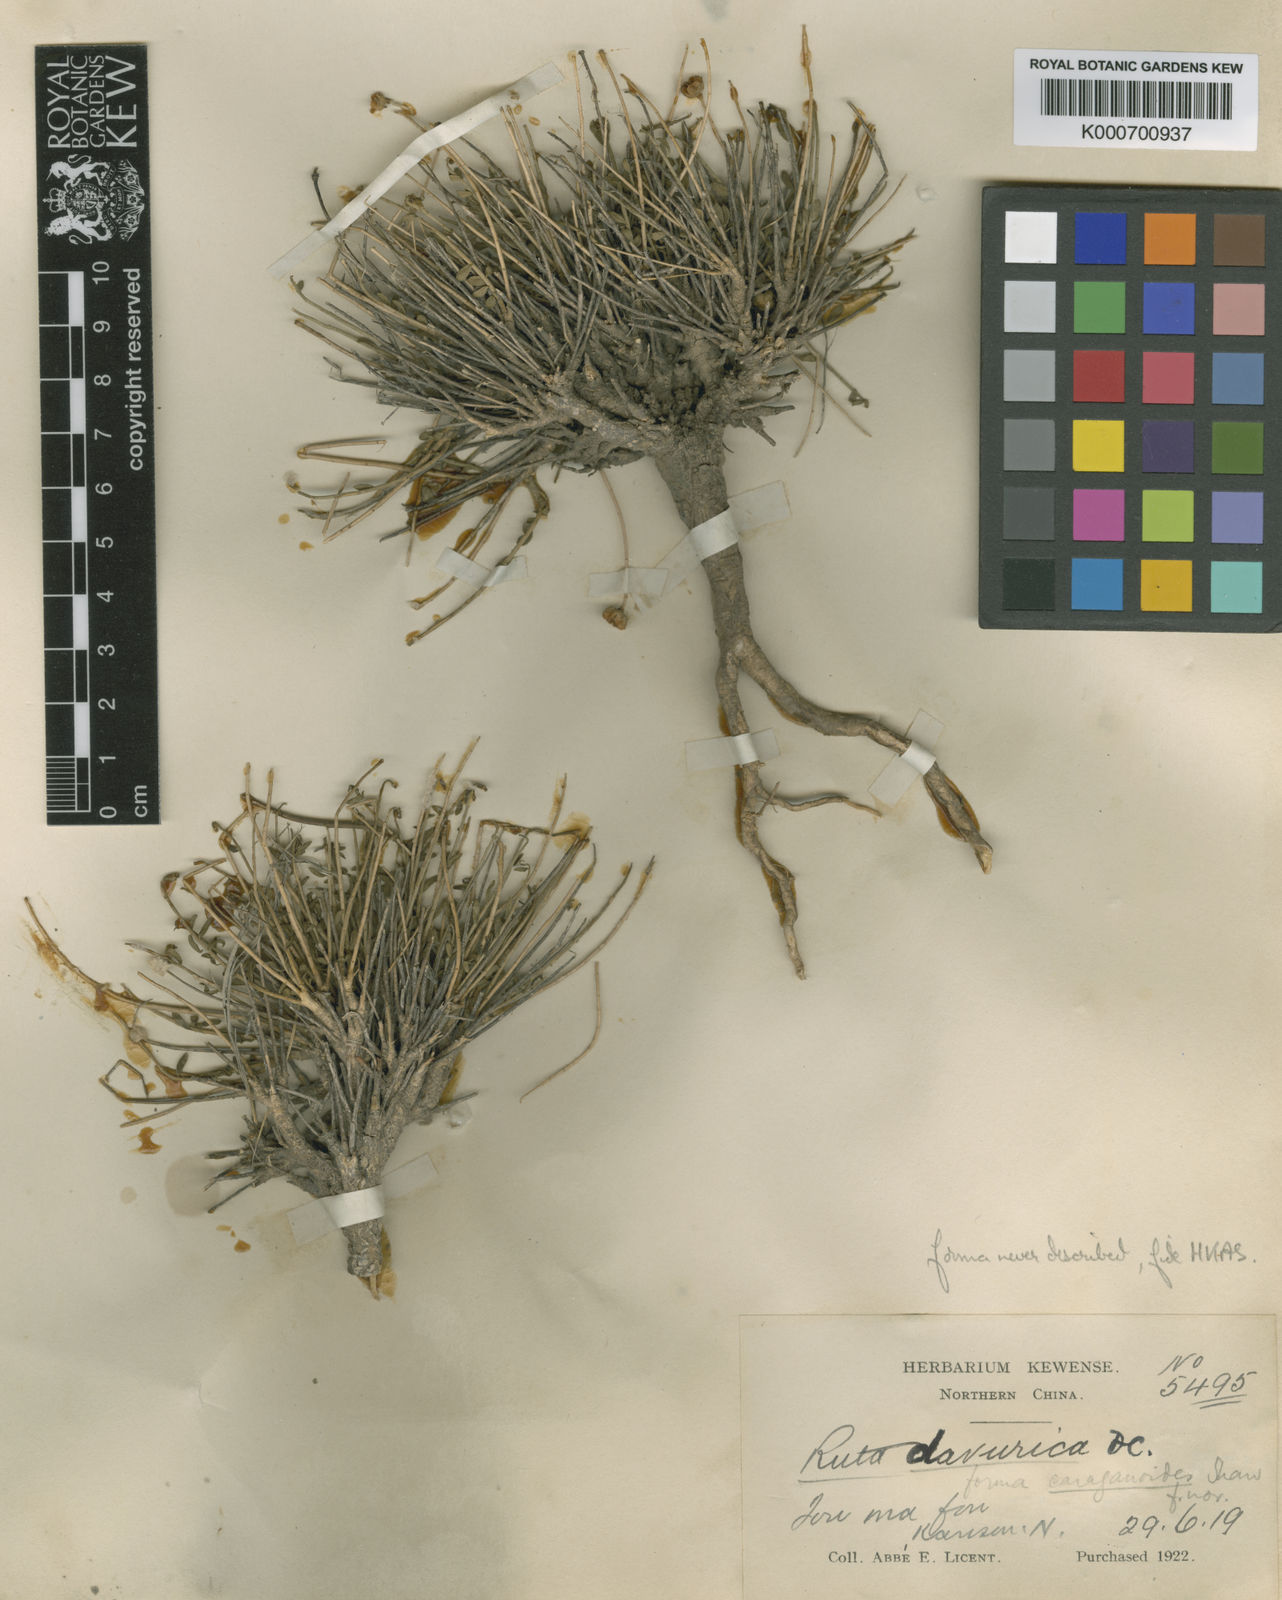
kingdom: Plantae
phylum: Tracheophyta
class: Magnoliopsida
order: Sapindales
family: Rutaceae
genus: Haplophyllum
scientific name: Haplophyllum
